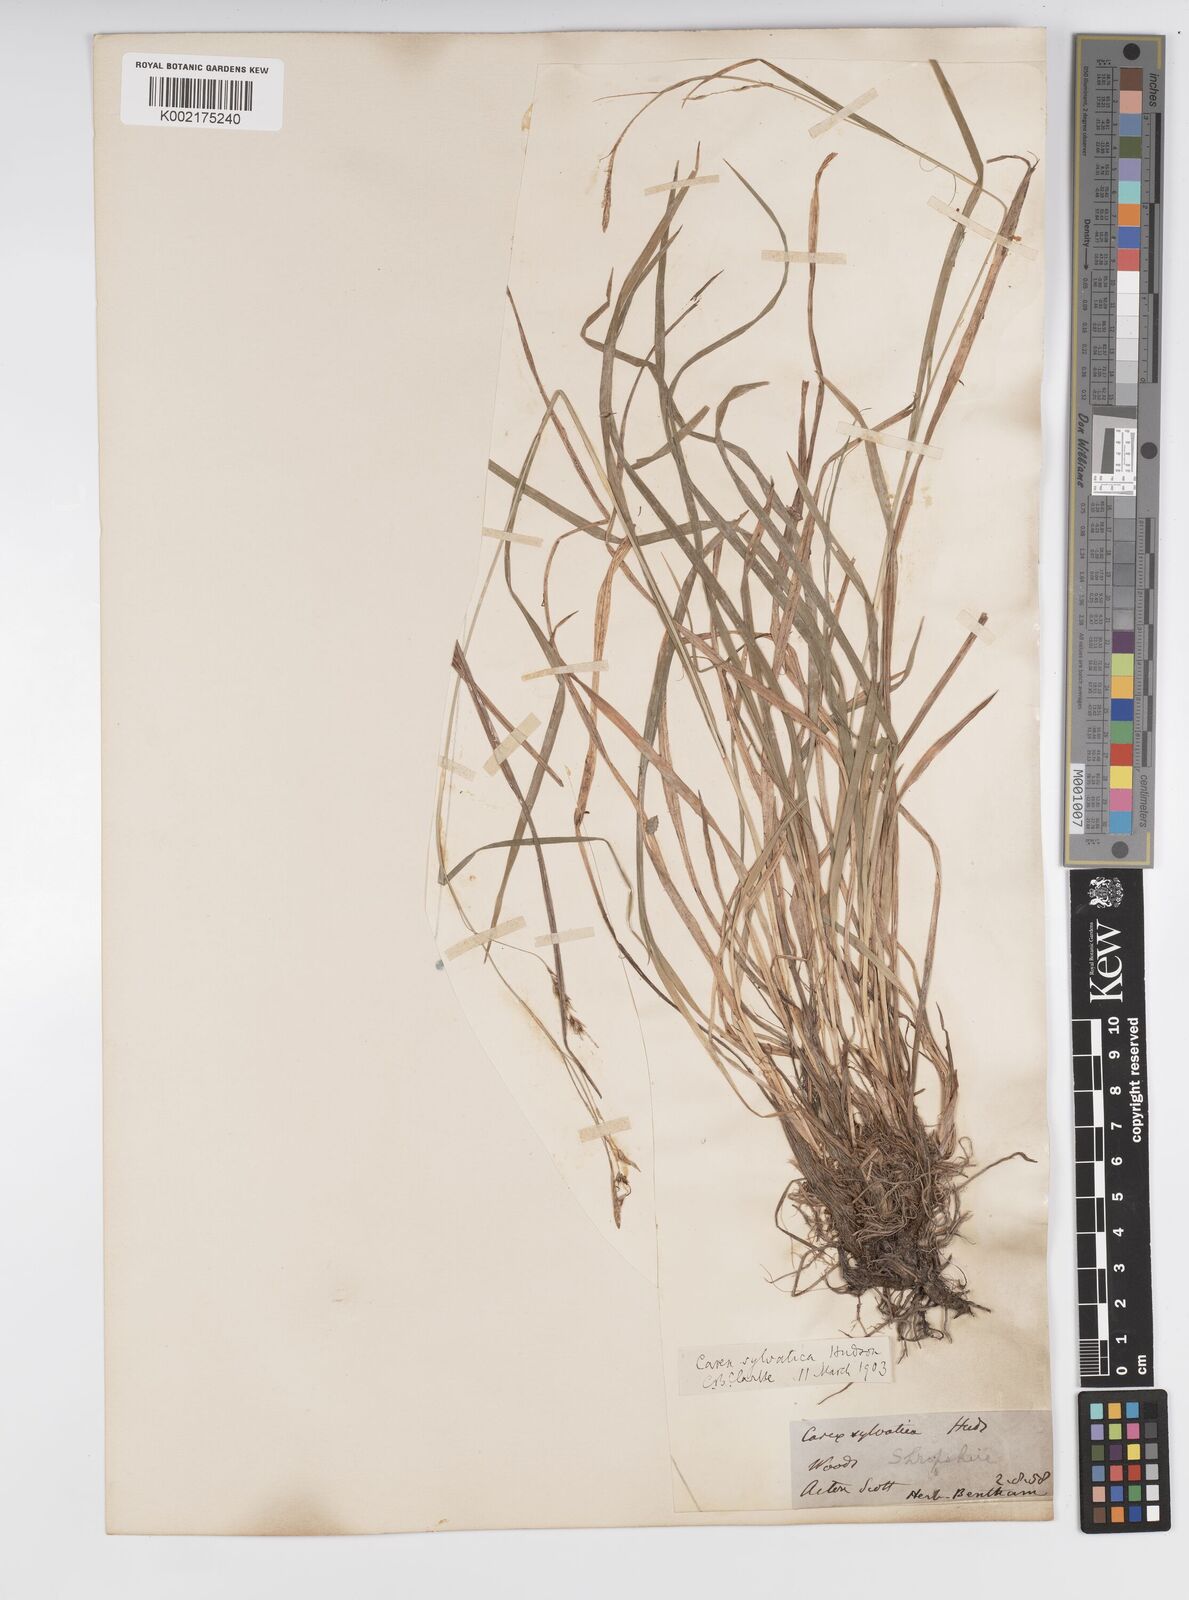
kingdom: Plantae
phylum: Tracheophyta
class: Liliopsida
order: Poales
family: Cyperaceae
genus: Carex
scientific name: Carex sylvatica
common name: Wood-sedge
